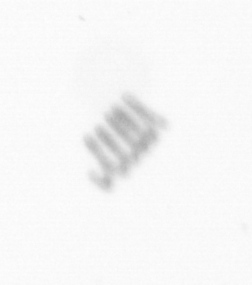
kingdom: Chromista
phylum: Ochrophyta
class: Bacillariophyceae
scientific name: Bacillariophyceae
